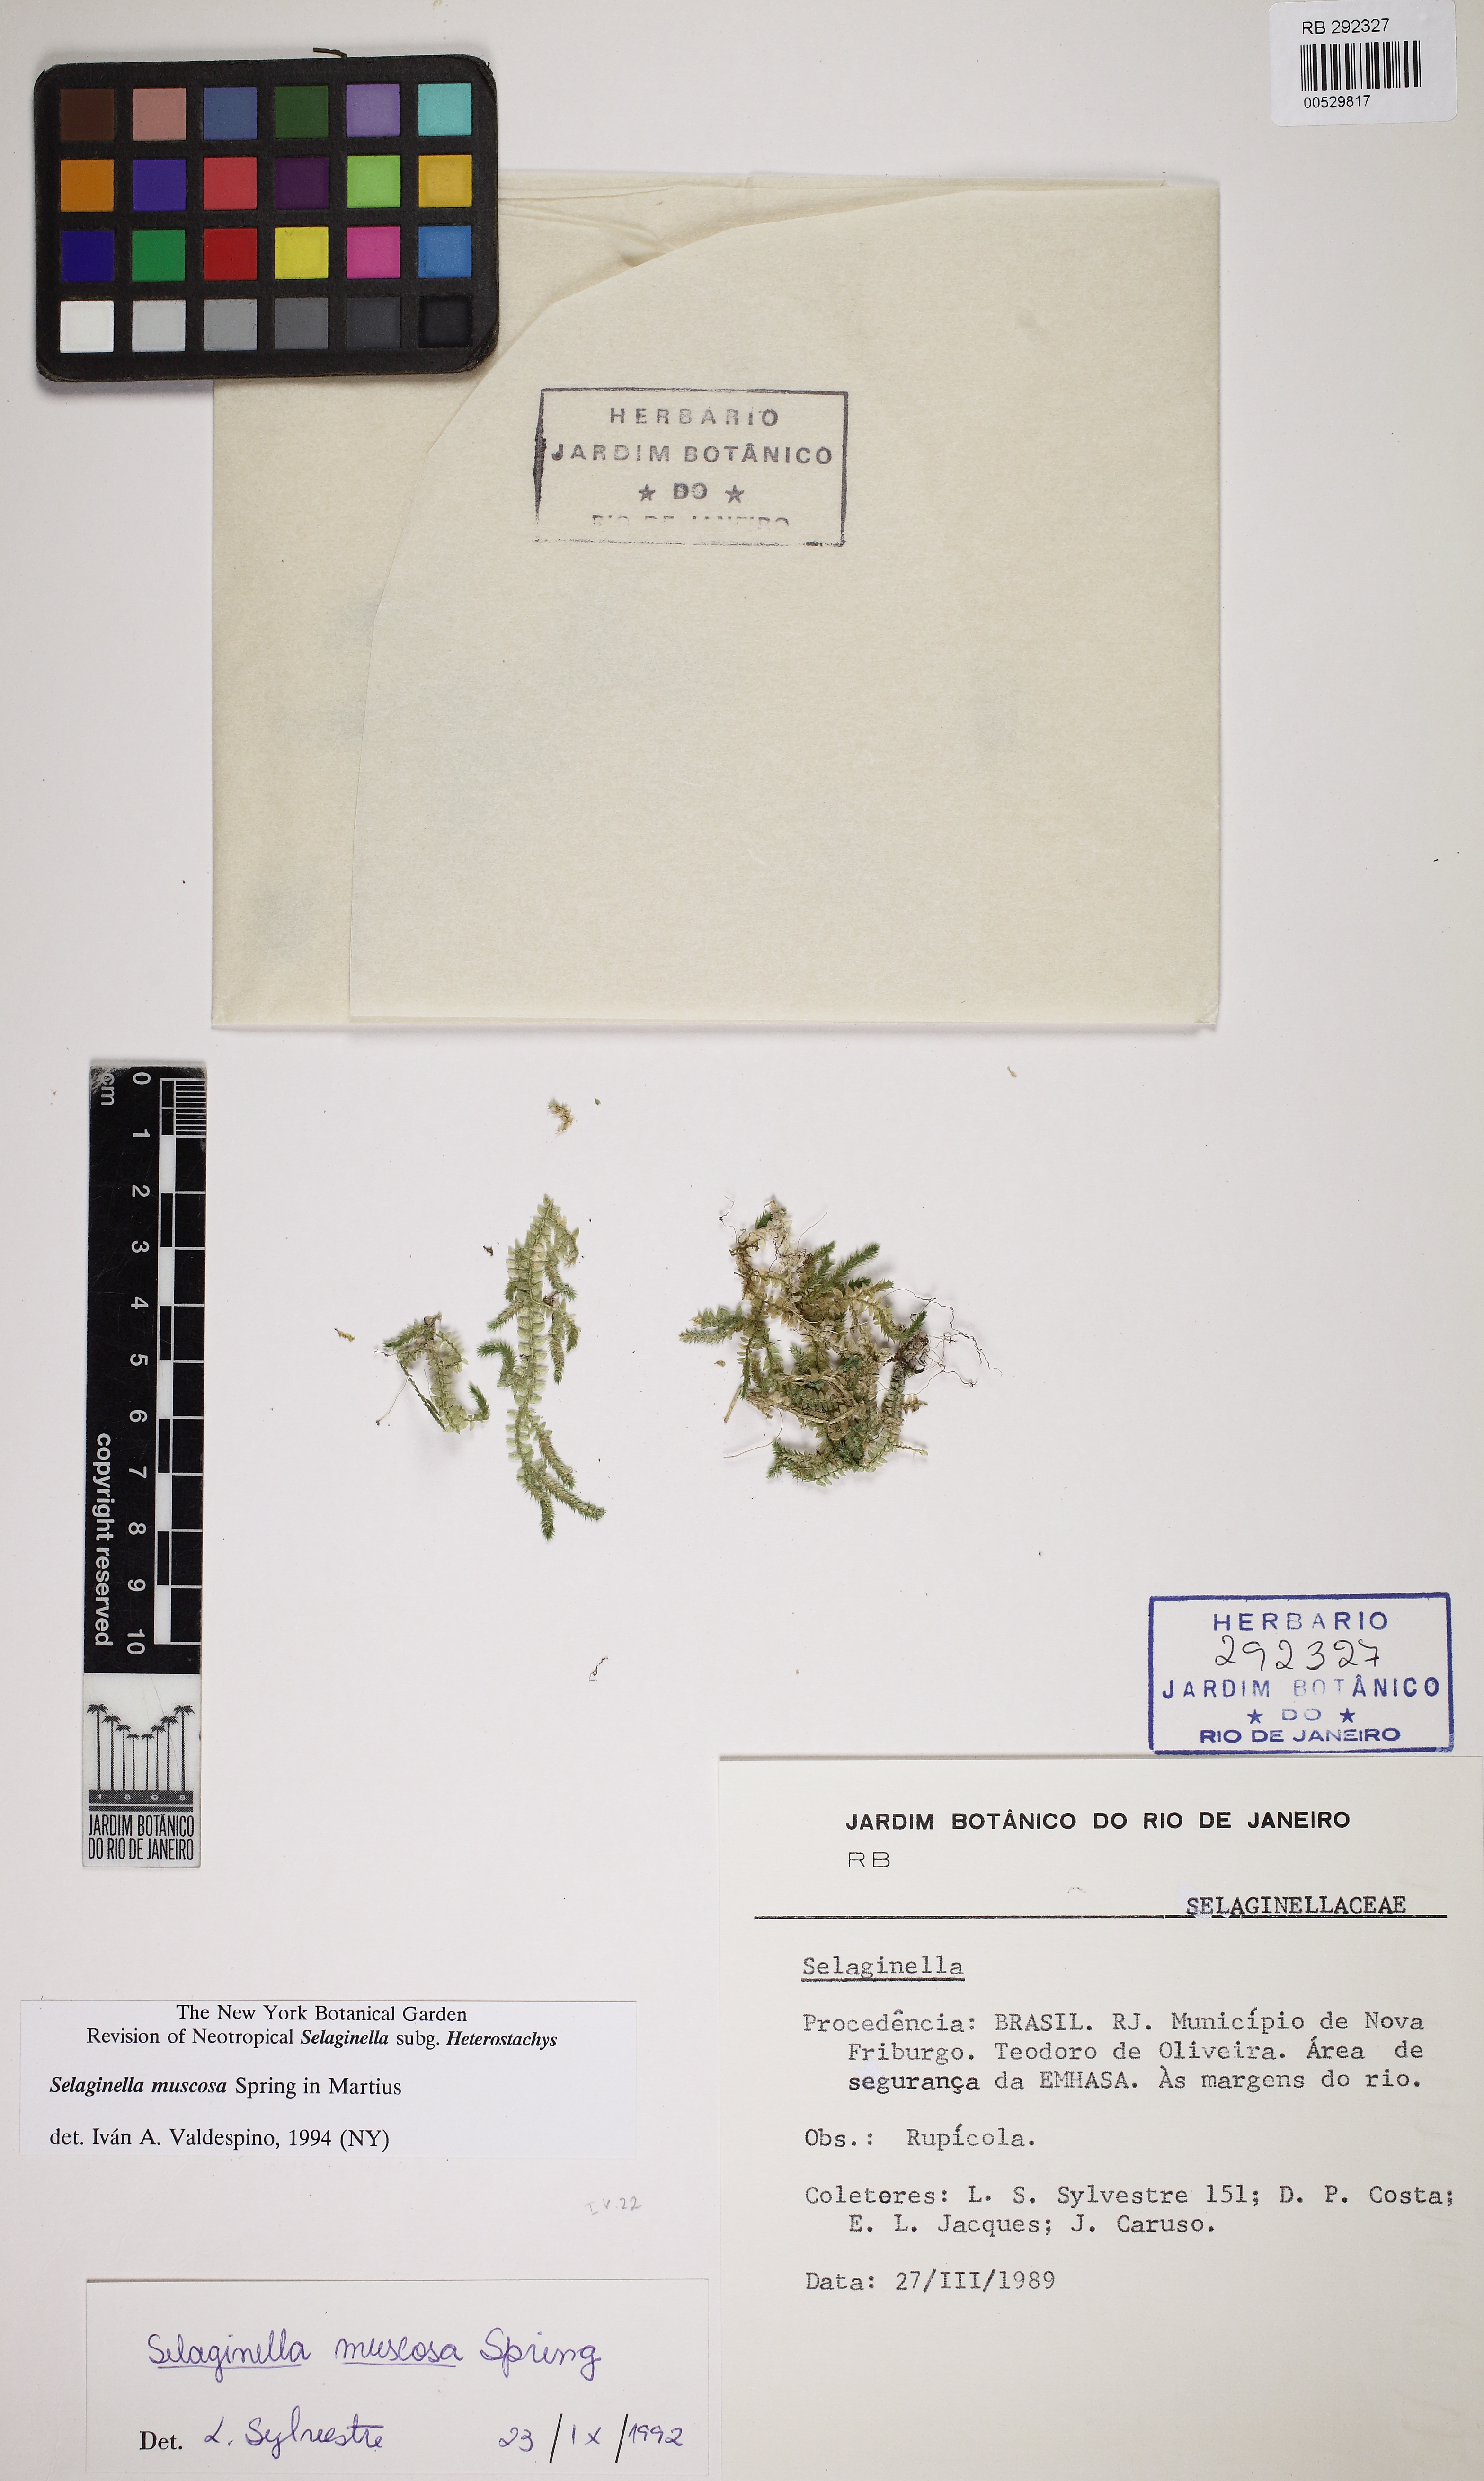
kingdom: Plantae
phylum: Tracheophyta
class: Lycopodiopsida
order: Selaginellales
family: Selaginellaceae
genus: Selaginella
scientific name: Selaginella muscosa
